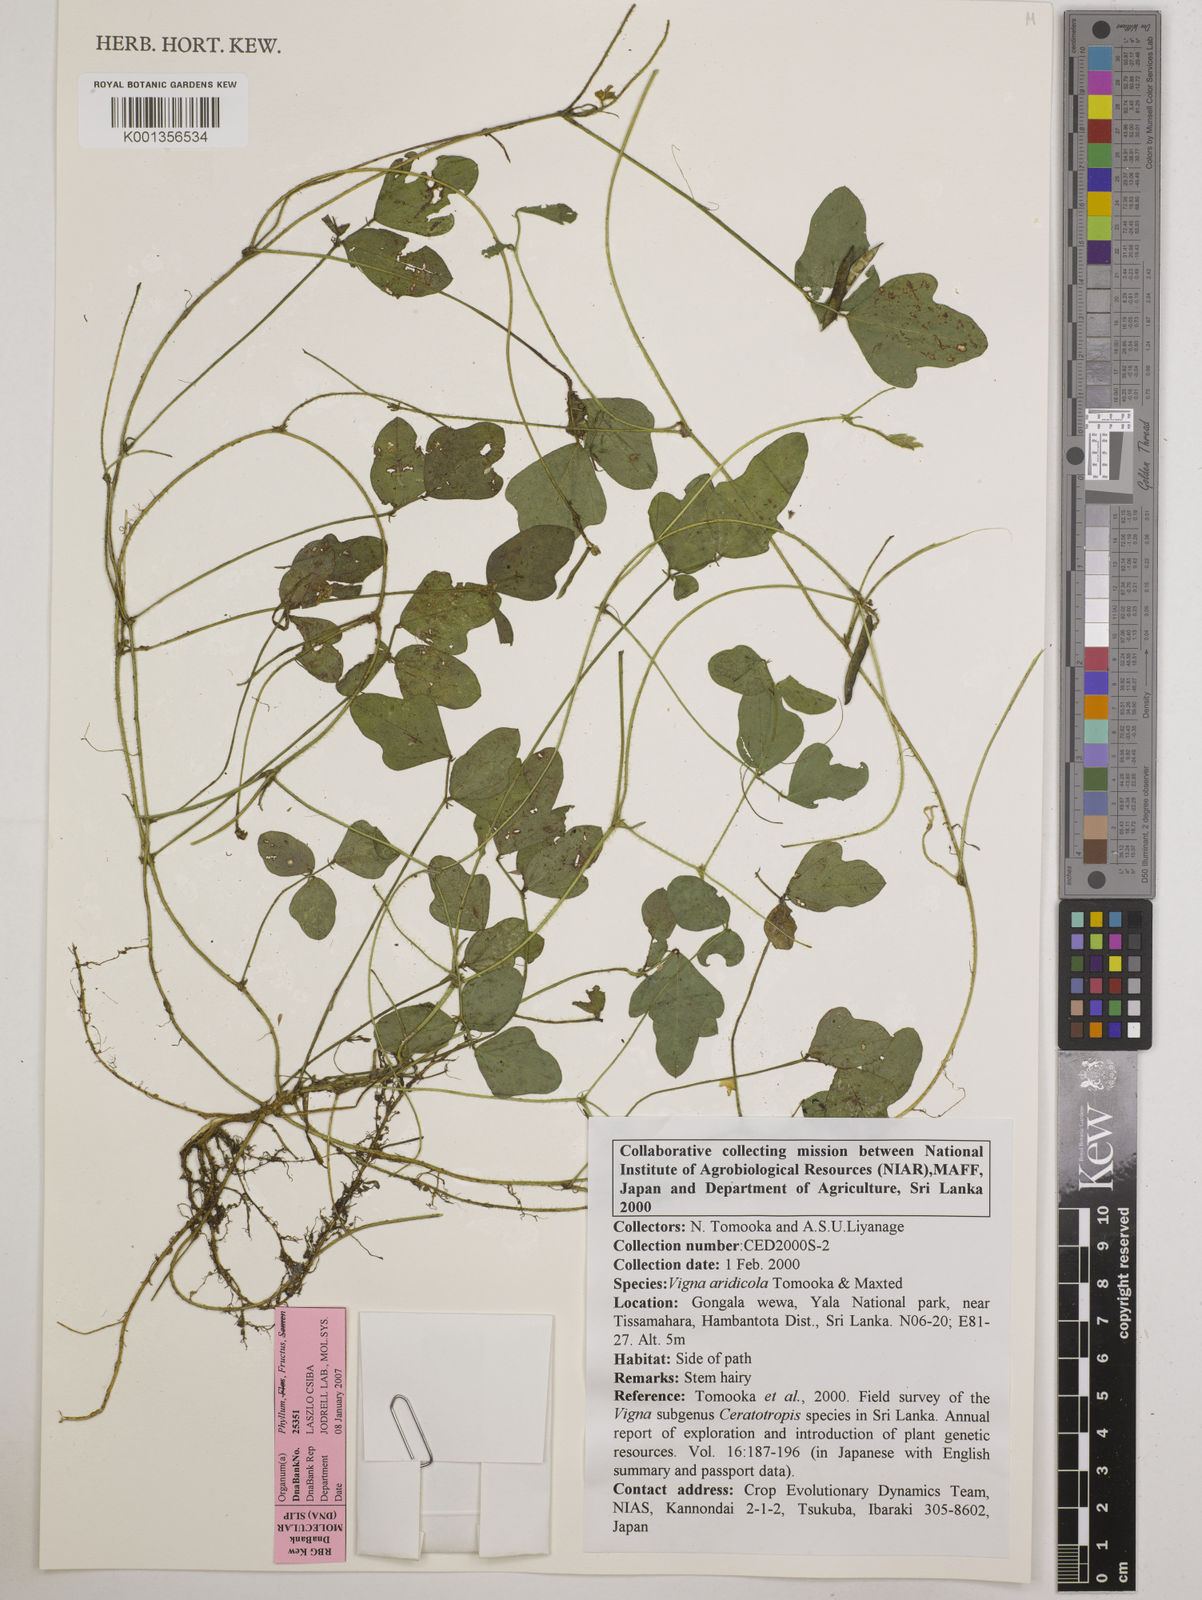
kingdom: Plantae
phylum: Tracheophyta
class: Magnoliopsida
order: Fabales
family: Fabaceae
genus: Vigna
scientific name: Vigna
